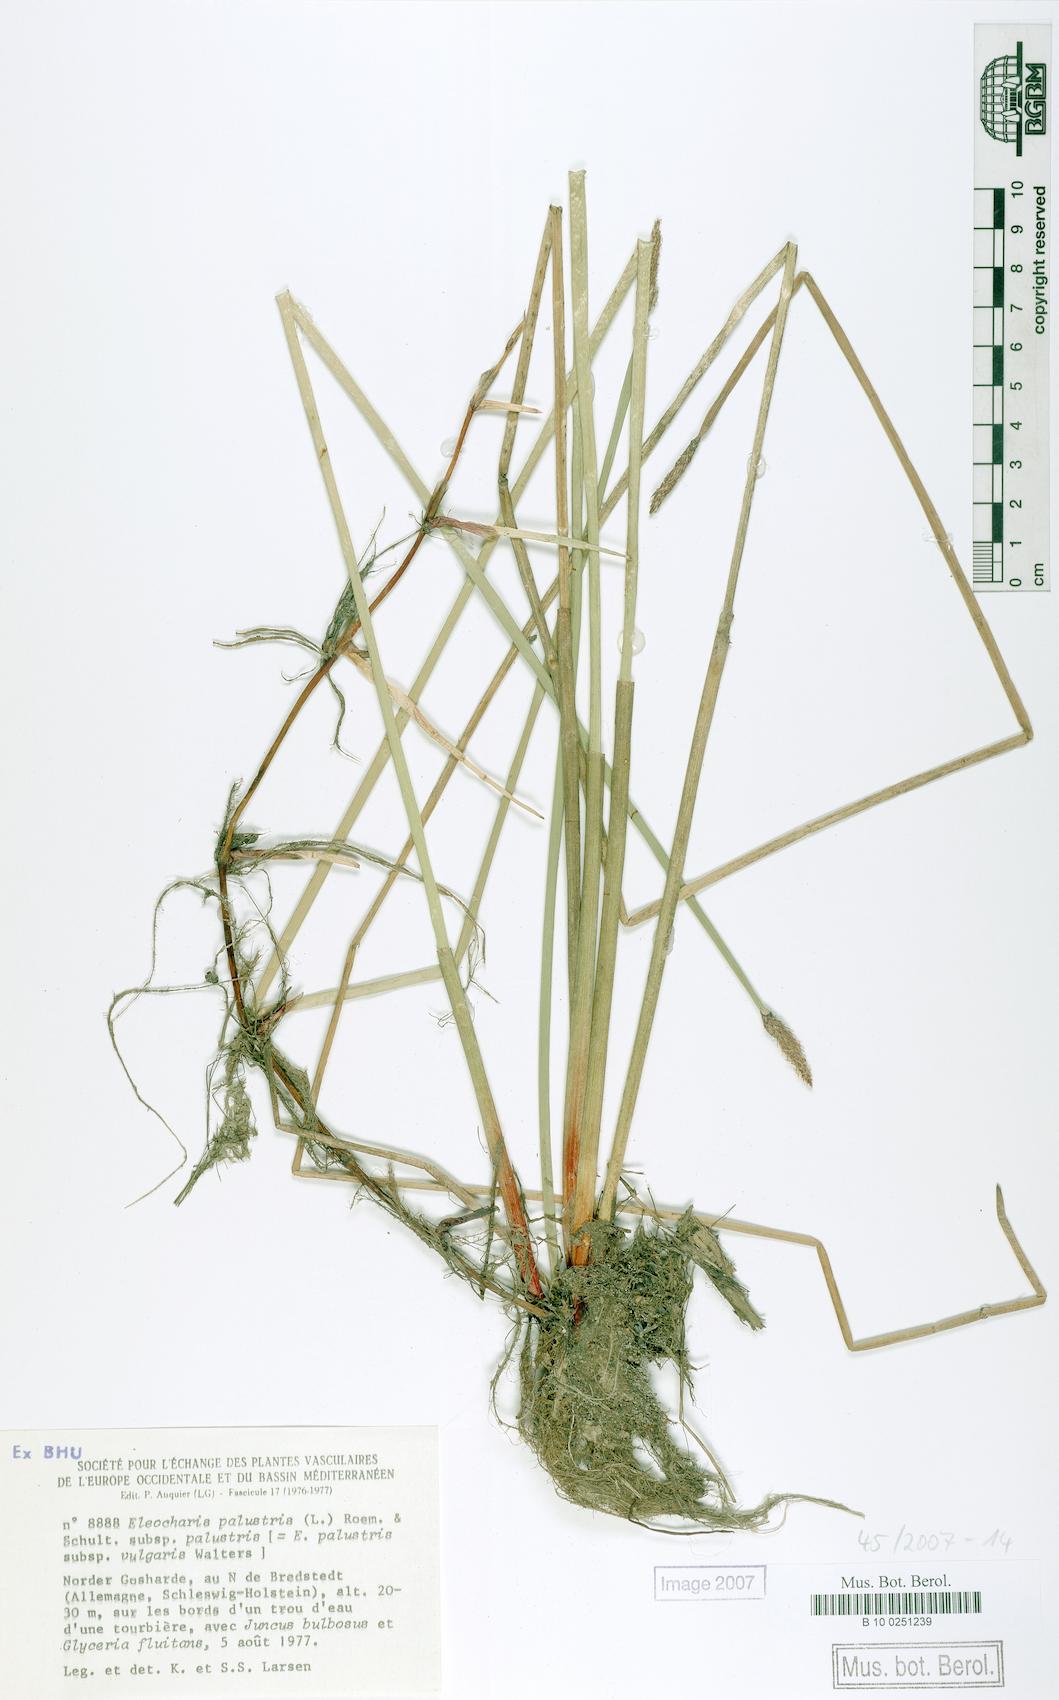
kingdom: Plantae
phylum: Tracheophyta
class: Liliopsida
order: Poales
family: Cyperaceae
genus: Eleocharis
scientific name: Eleocharis palustris
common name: Common spike-rush
